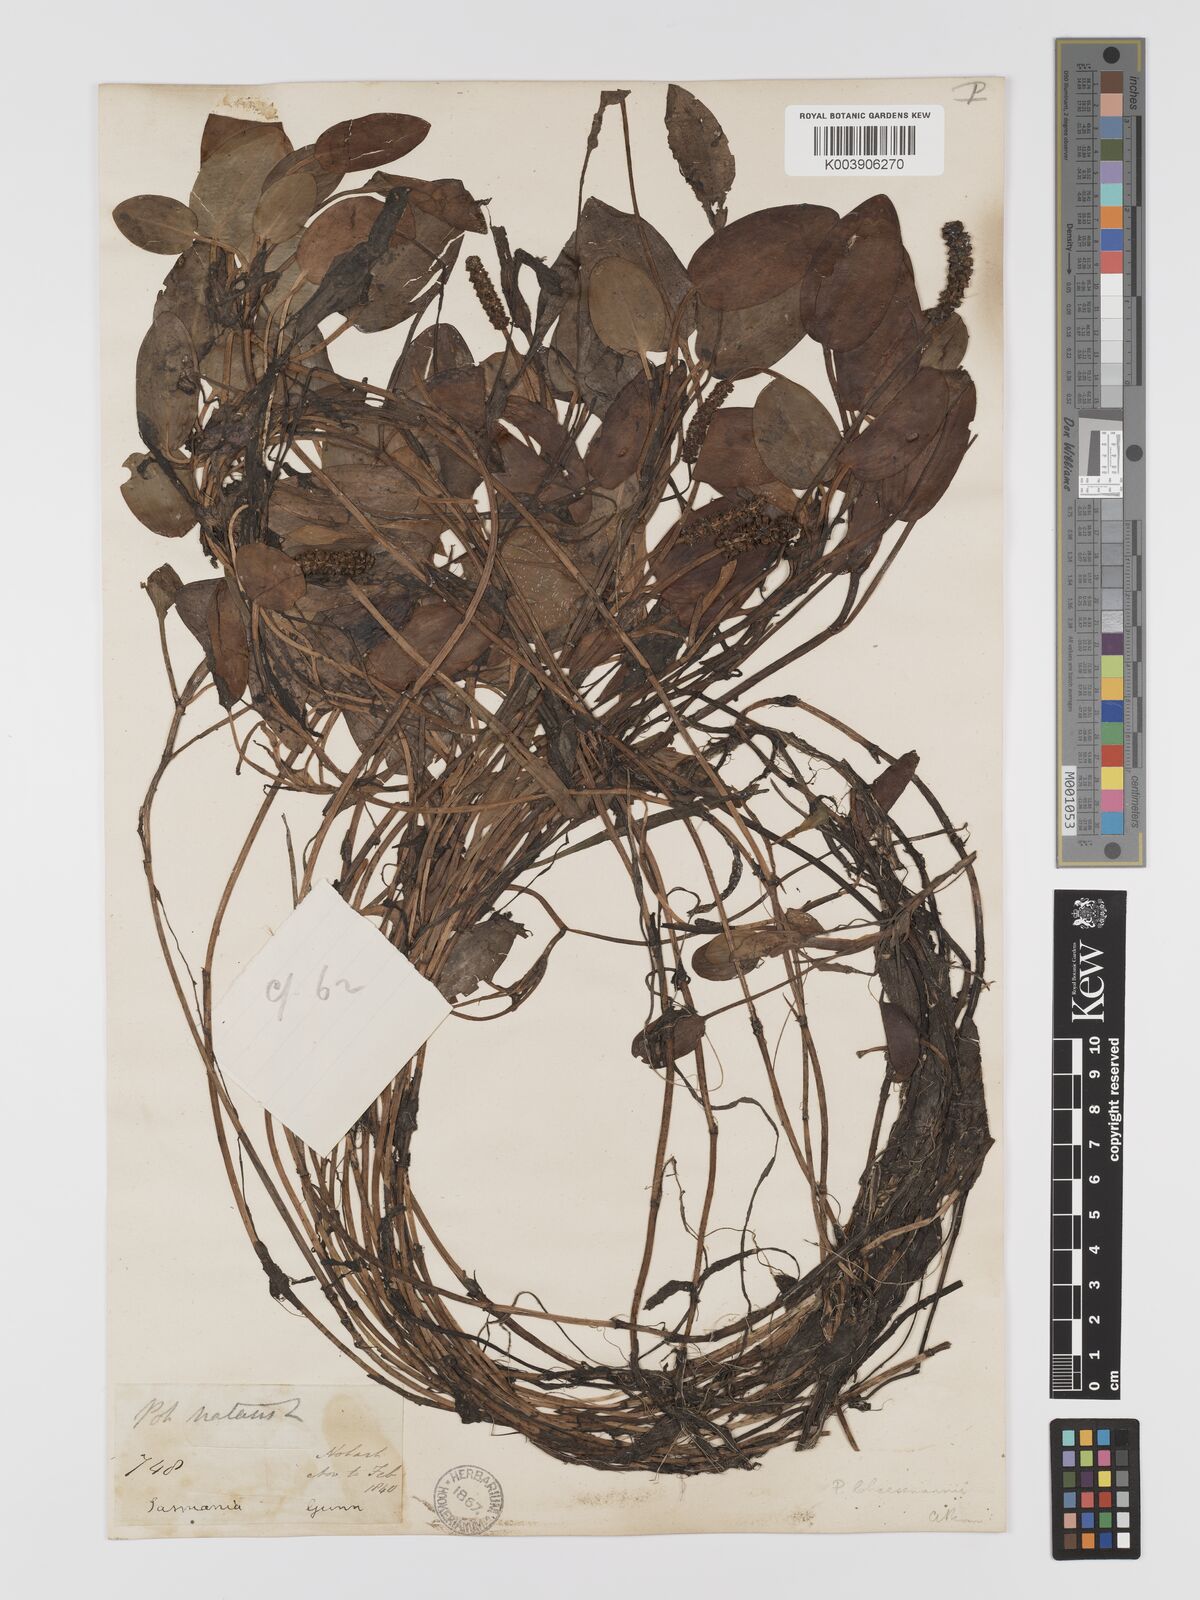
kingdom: Plantae
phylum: Tracheophyta
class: Liliopsida
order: Alismatales
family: Potamogetonaceae
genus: Potamogeton
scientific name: Potamogeton cheesemanii
